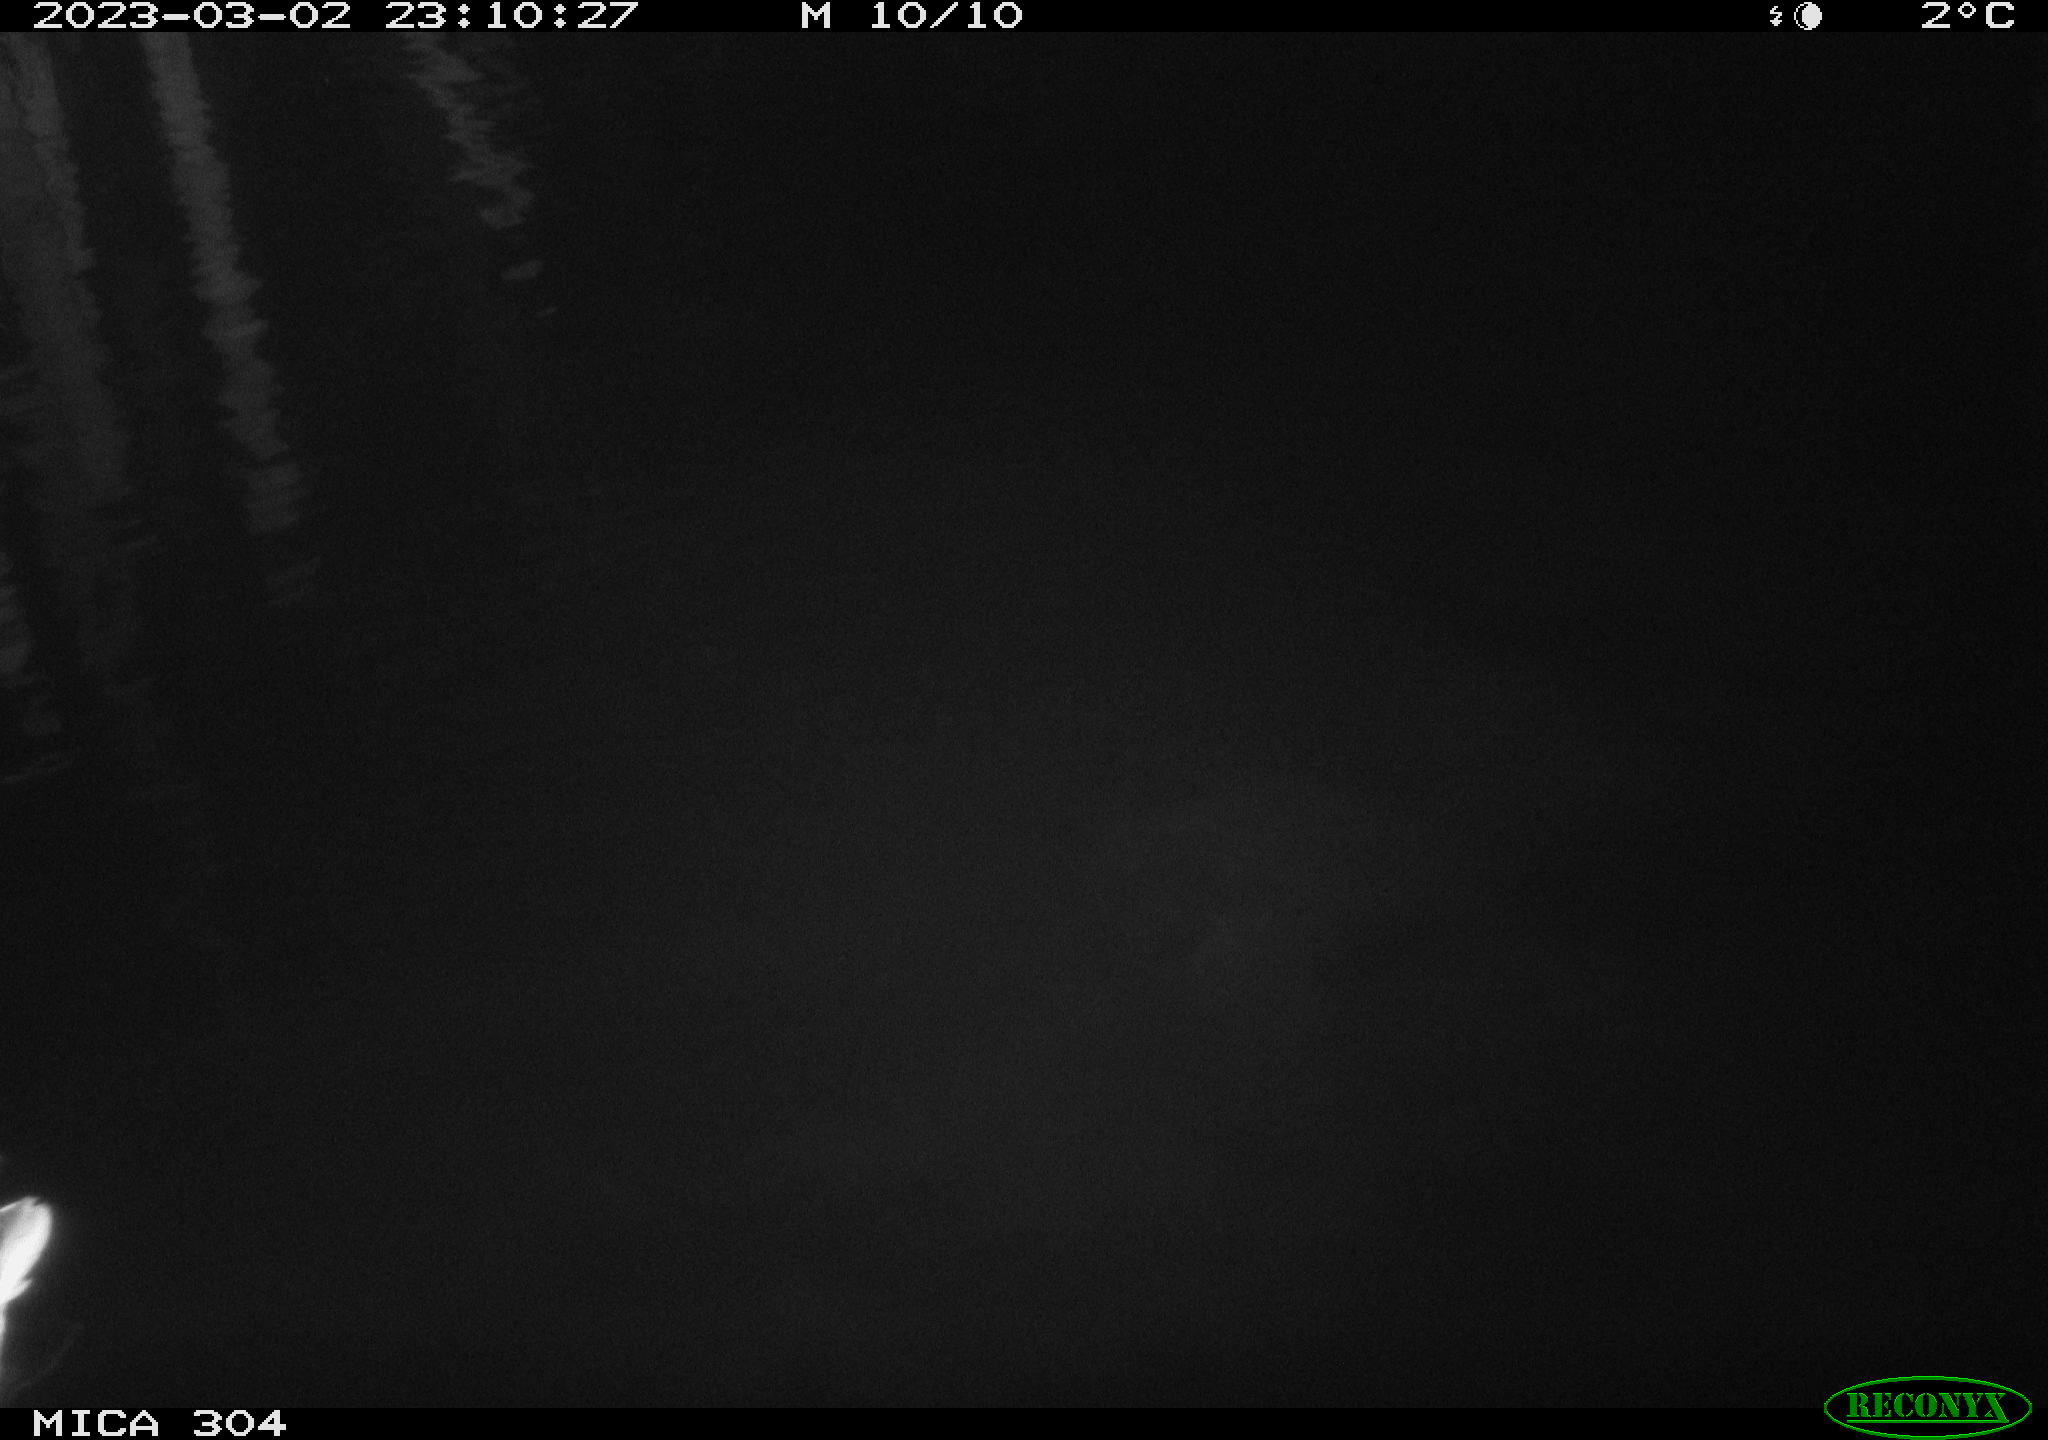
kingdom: Animalia
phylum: Chordata
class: Aves
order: Anseriformes
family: Anatidae
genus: Anas
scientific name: Anas
